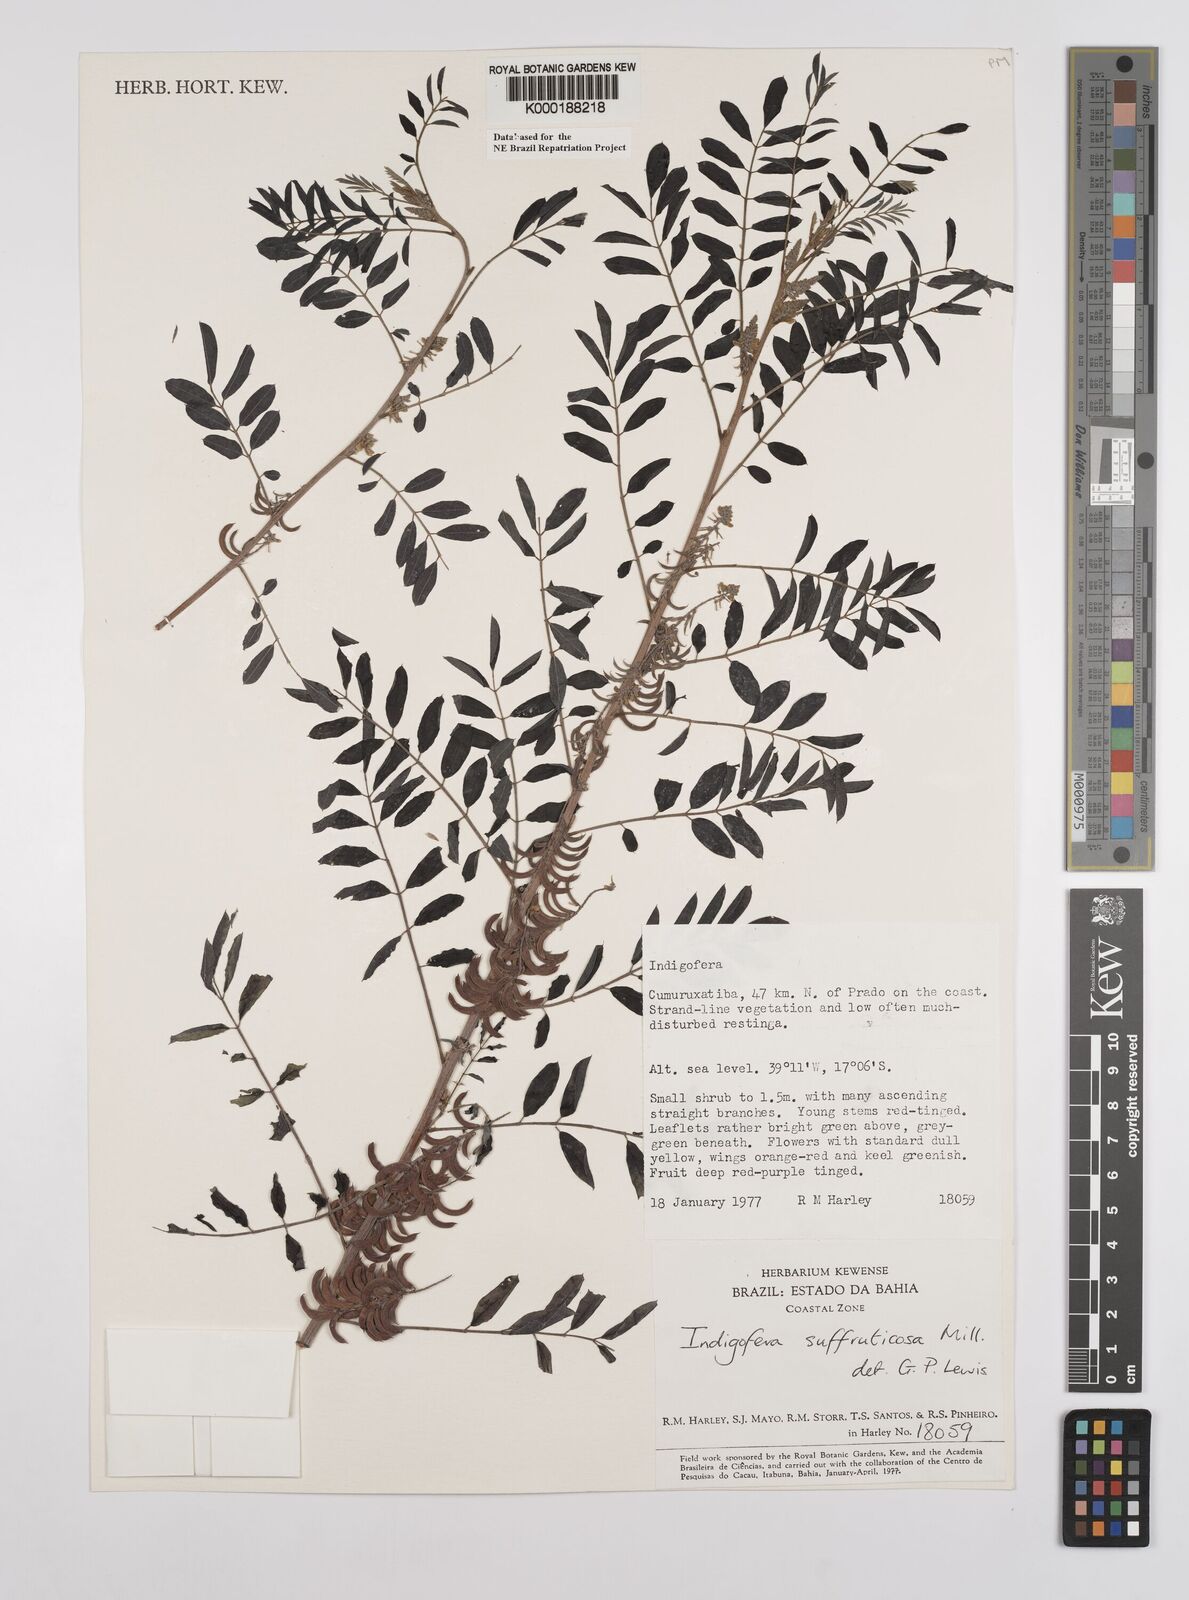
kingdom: Plantae
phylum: Tracheophyta
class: Magnoliopsida
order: Fabales
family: Fabaceae
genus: Indigofera
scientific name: Indigofera suffruticosa
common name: Anil de pasto
